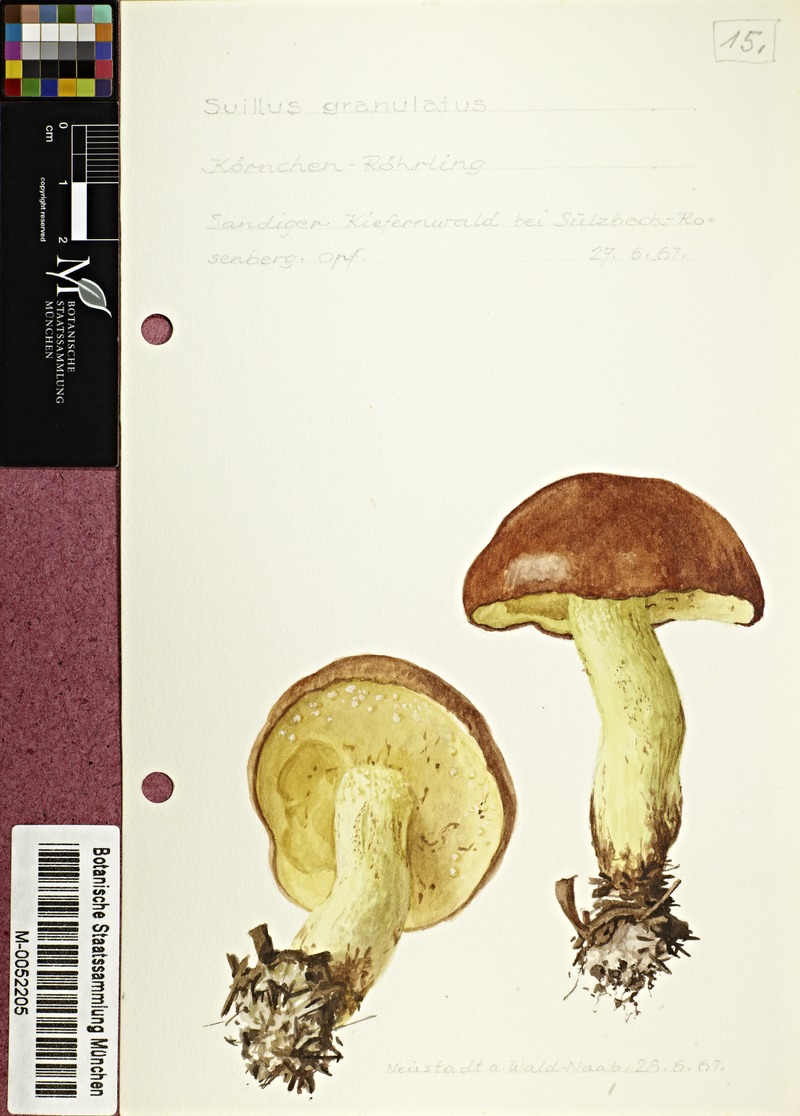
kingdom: Fungi
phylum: Basidiomycota
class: Agaricomycetes
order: Boletales
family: Suillaceae
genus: Suillus
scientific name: Suillus granulatus
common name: Weeping bolete
